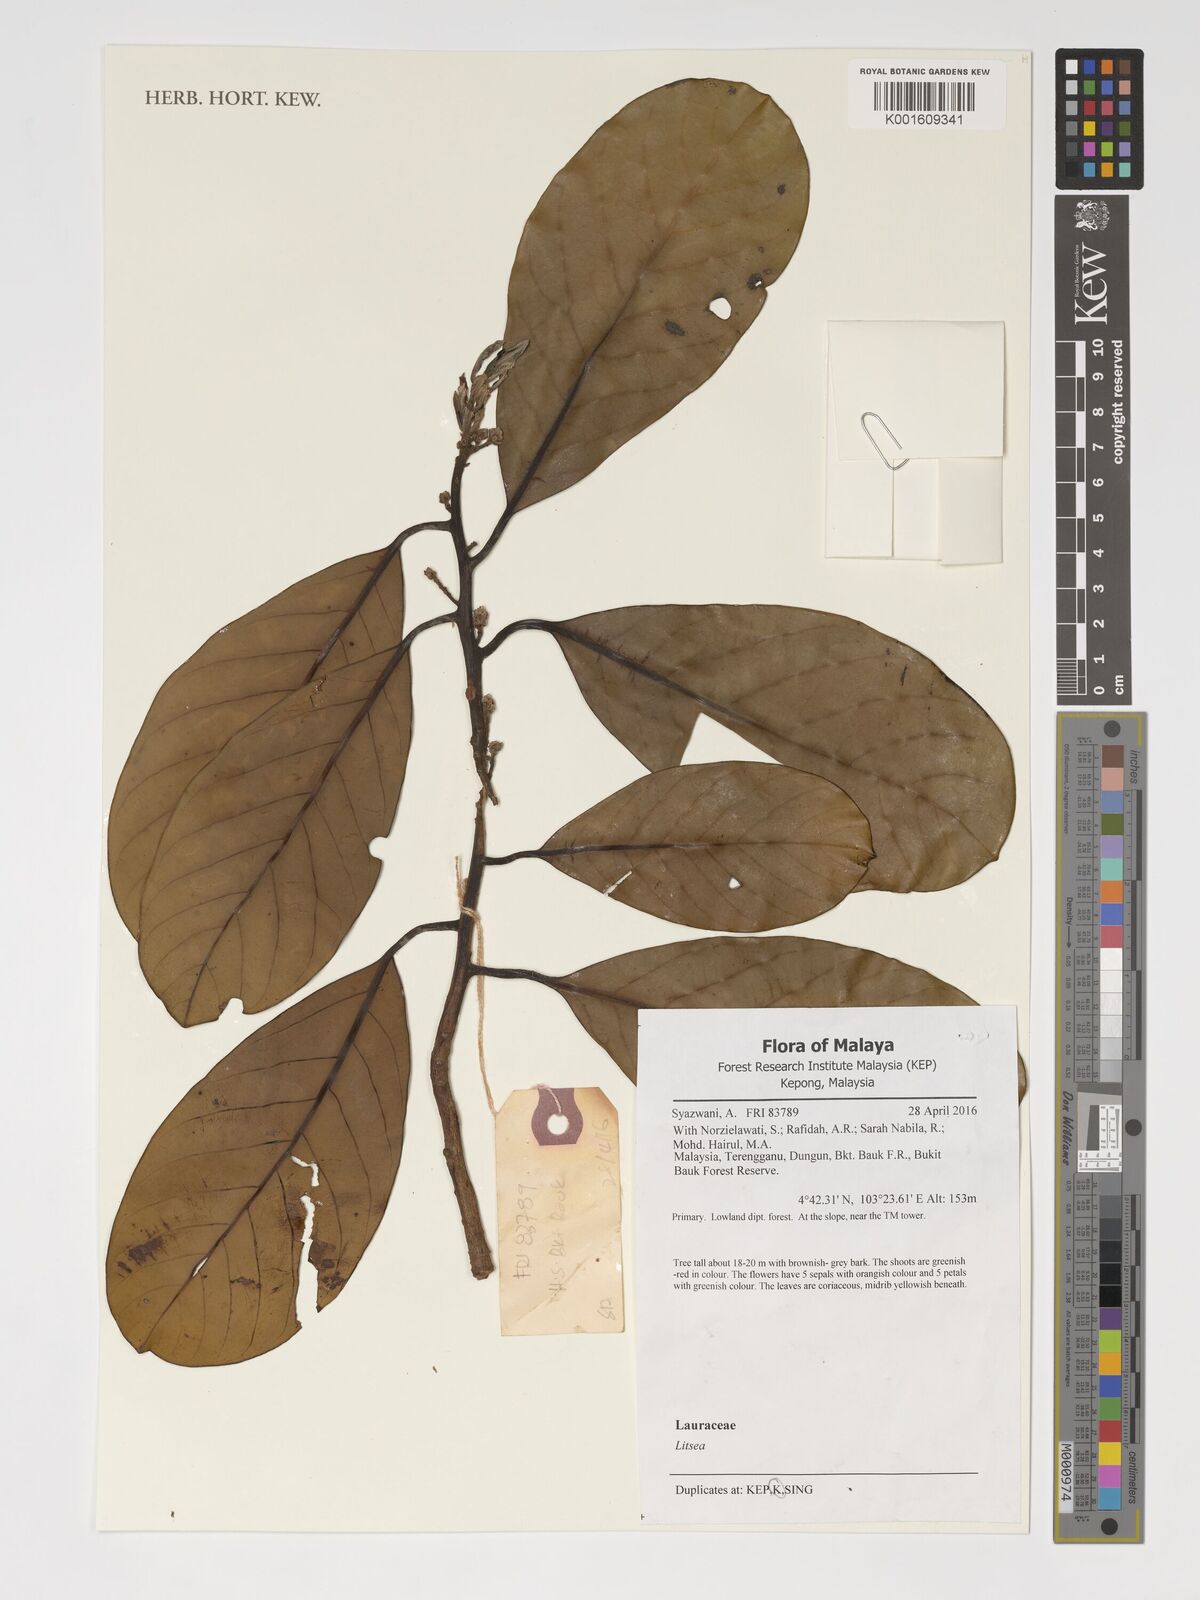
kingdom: Plantae
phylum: Tracheophyta
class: Magnoliopsida
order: Laurales
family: Lauraceae
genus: Litsea
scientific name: Litsea
